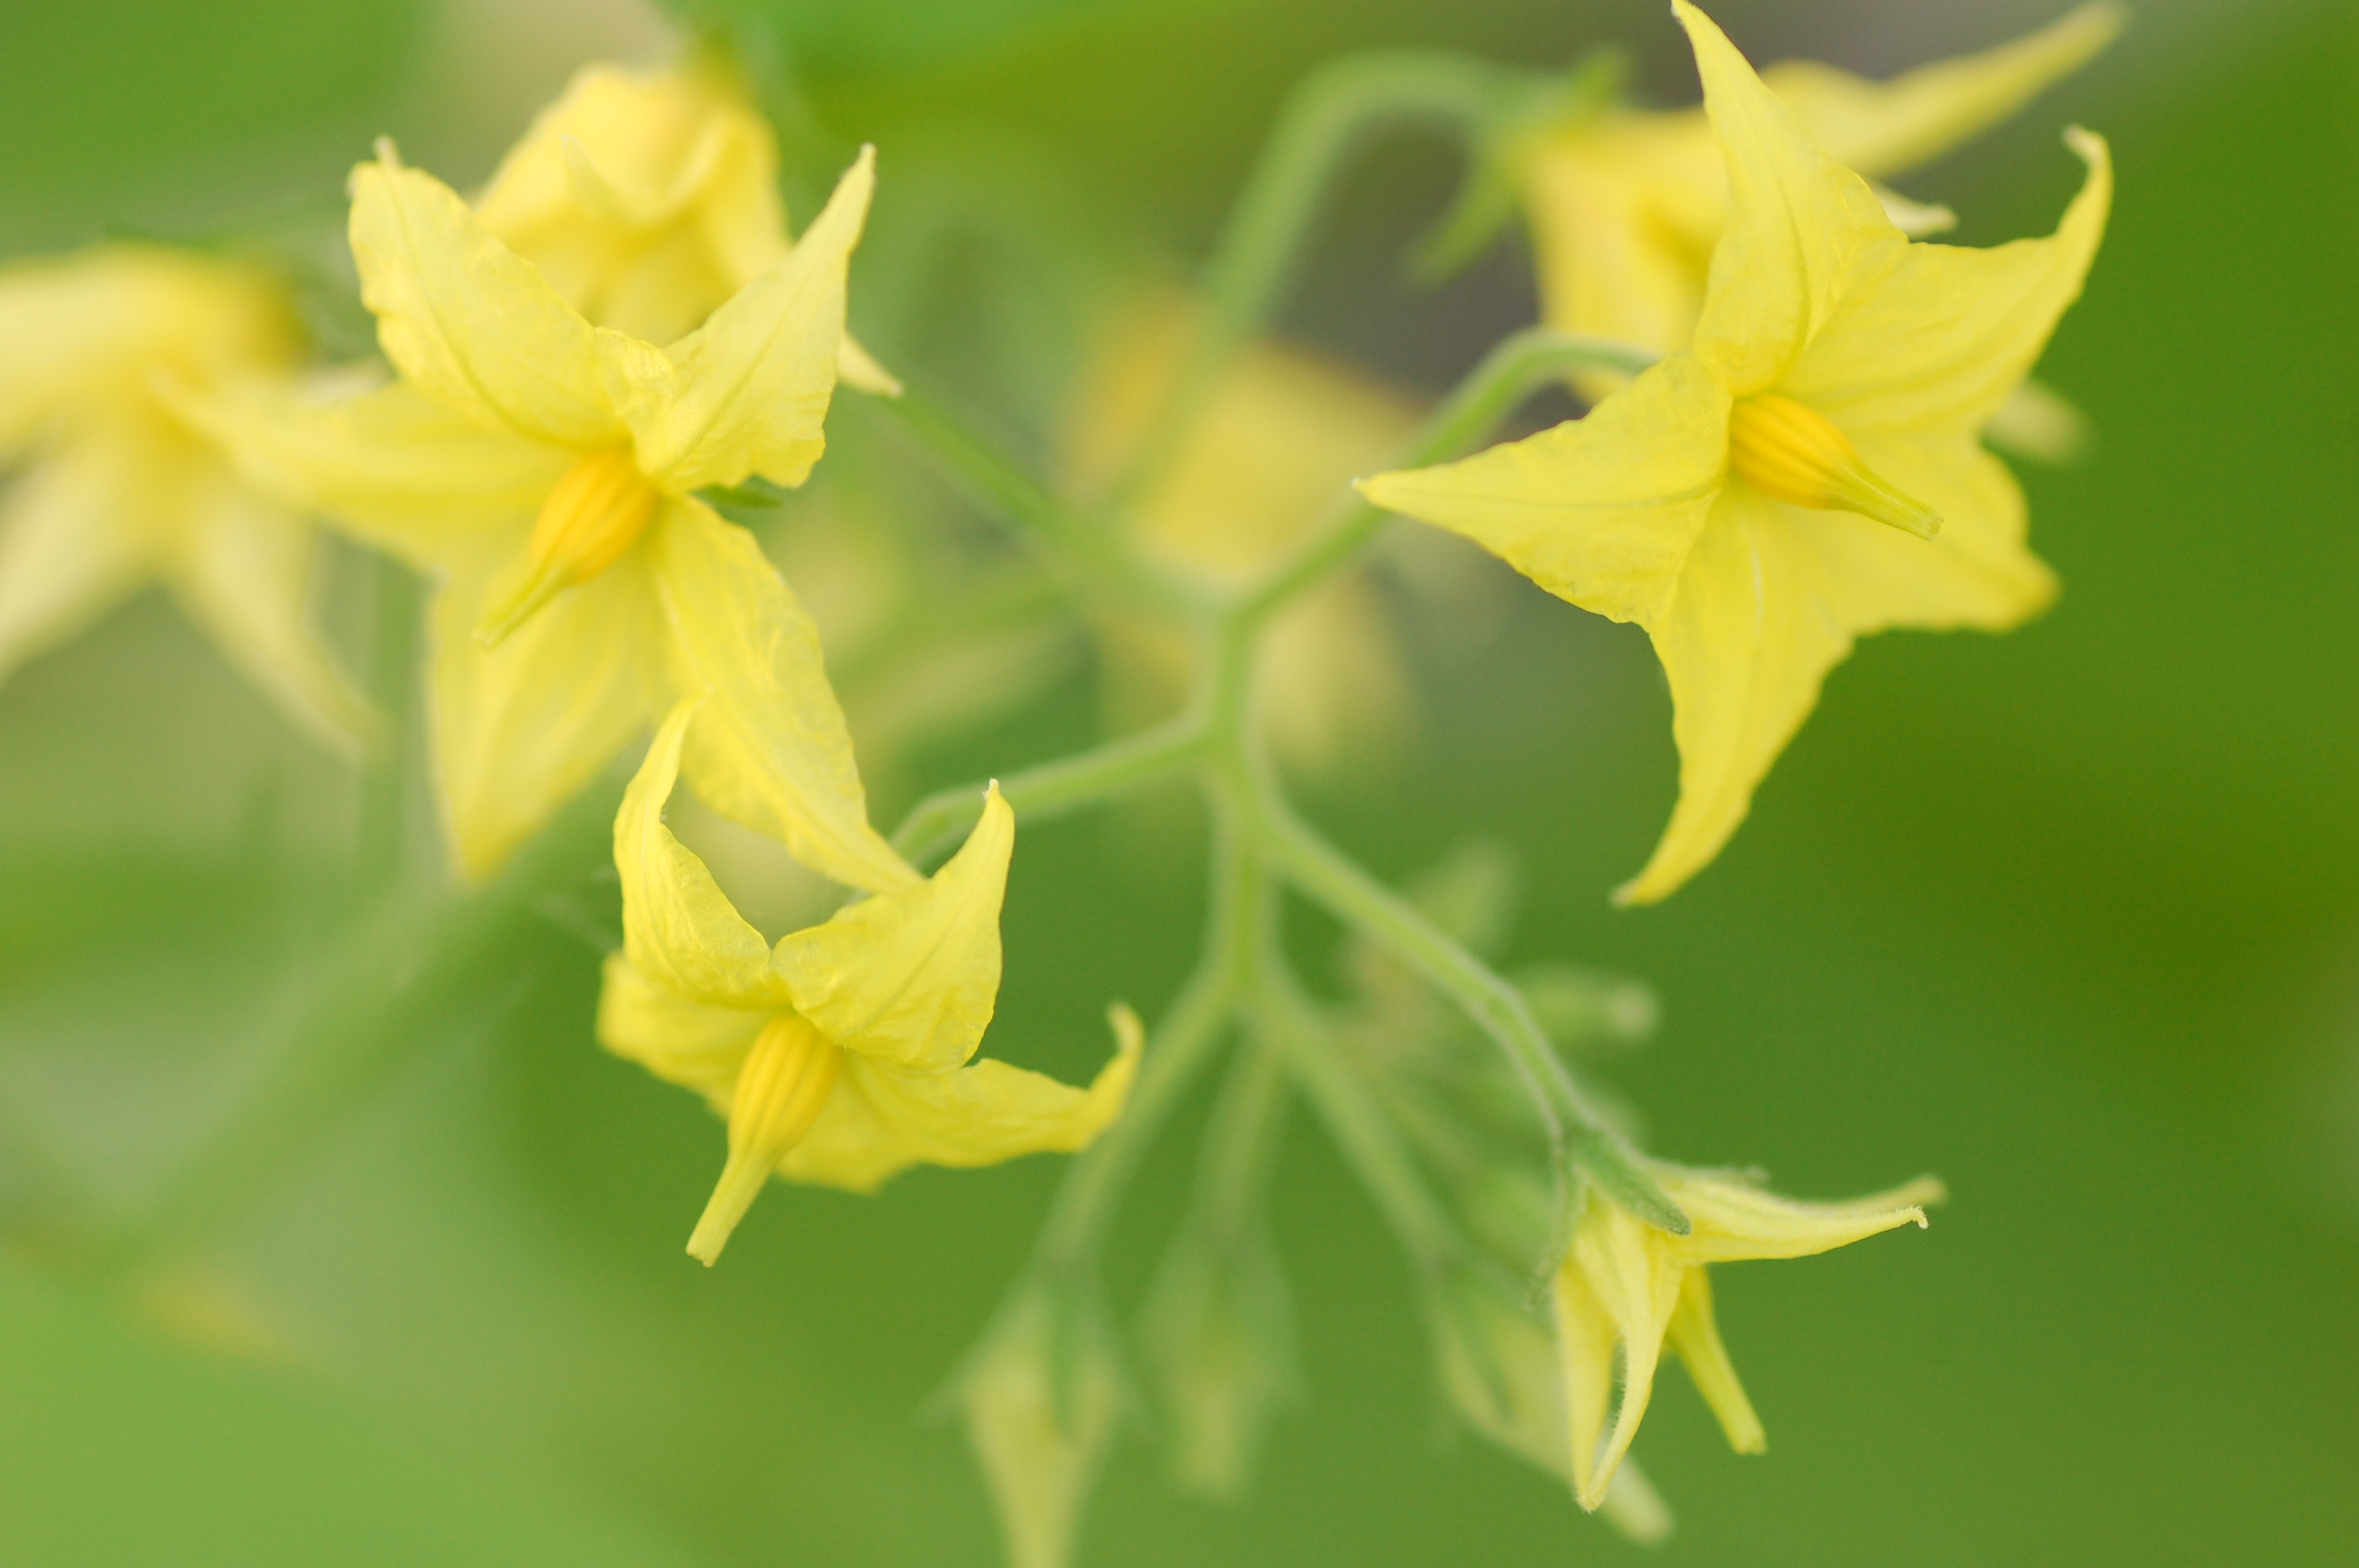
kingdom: Plantae
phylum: Tracheophyta
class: Magnoliopsida
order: Solanales
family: Solanaceae
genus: Solanum
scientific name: Solanum pimpinellifolium
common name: Currant-tomato
